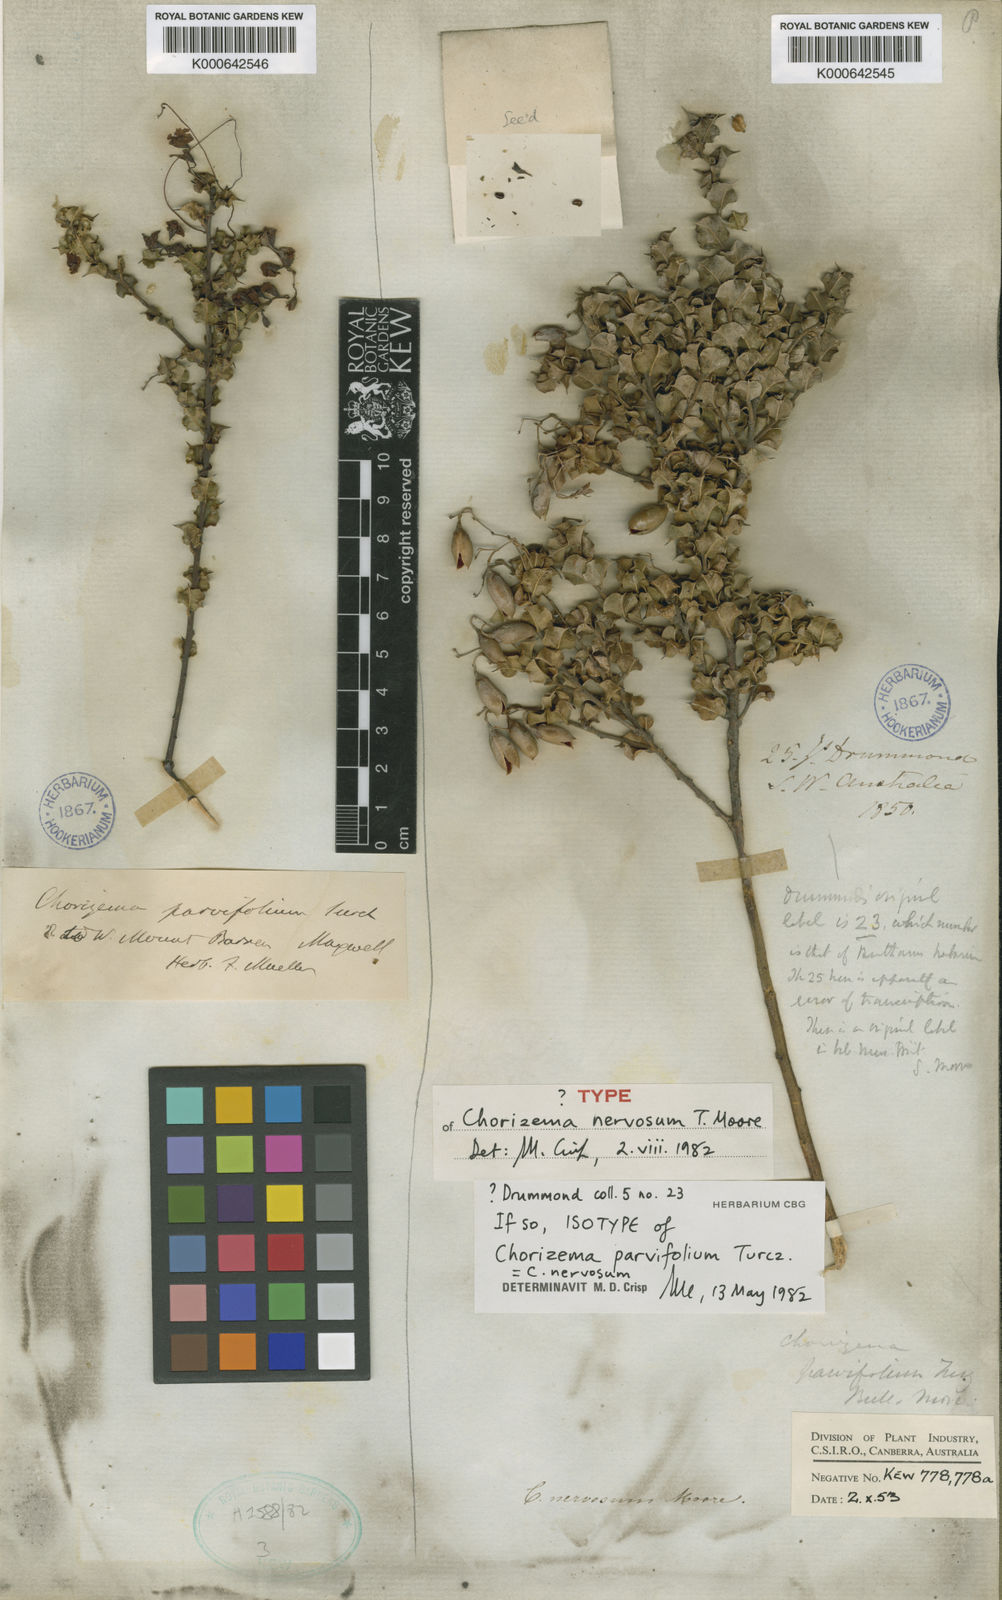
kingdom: Plantae
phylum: Tracheophyta
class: Magnoliopsida
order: Fabales
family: Fabaceae
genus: Chorizema
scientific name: Chorizema nervosum
